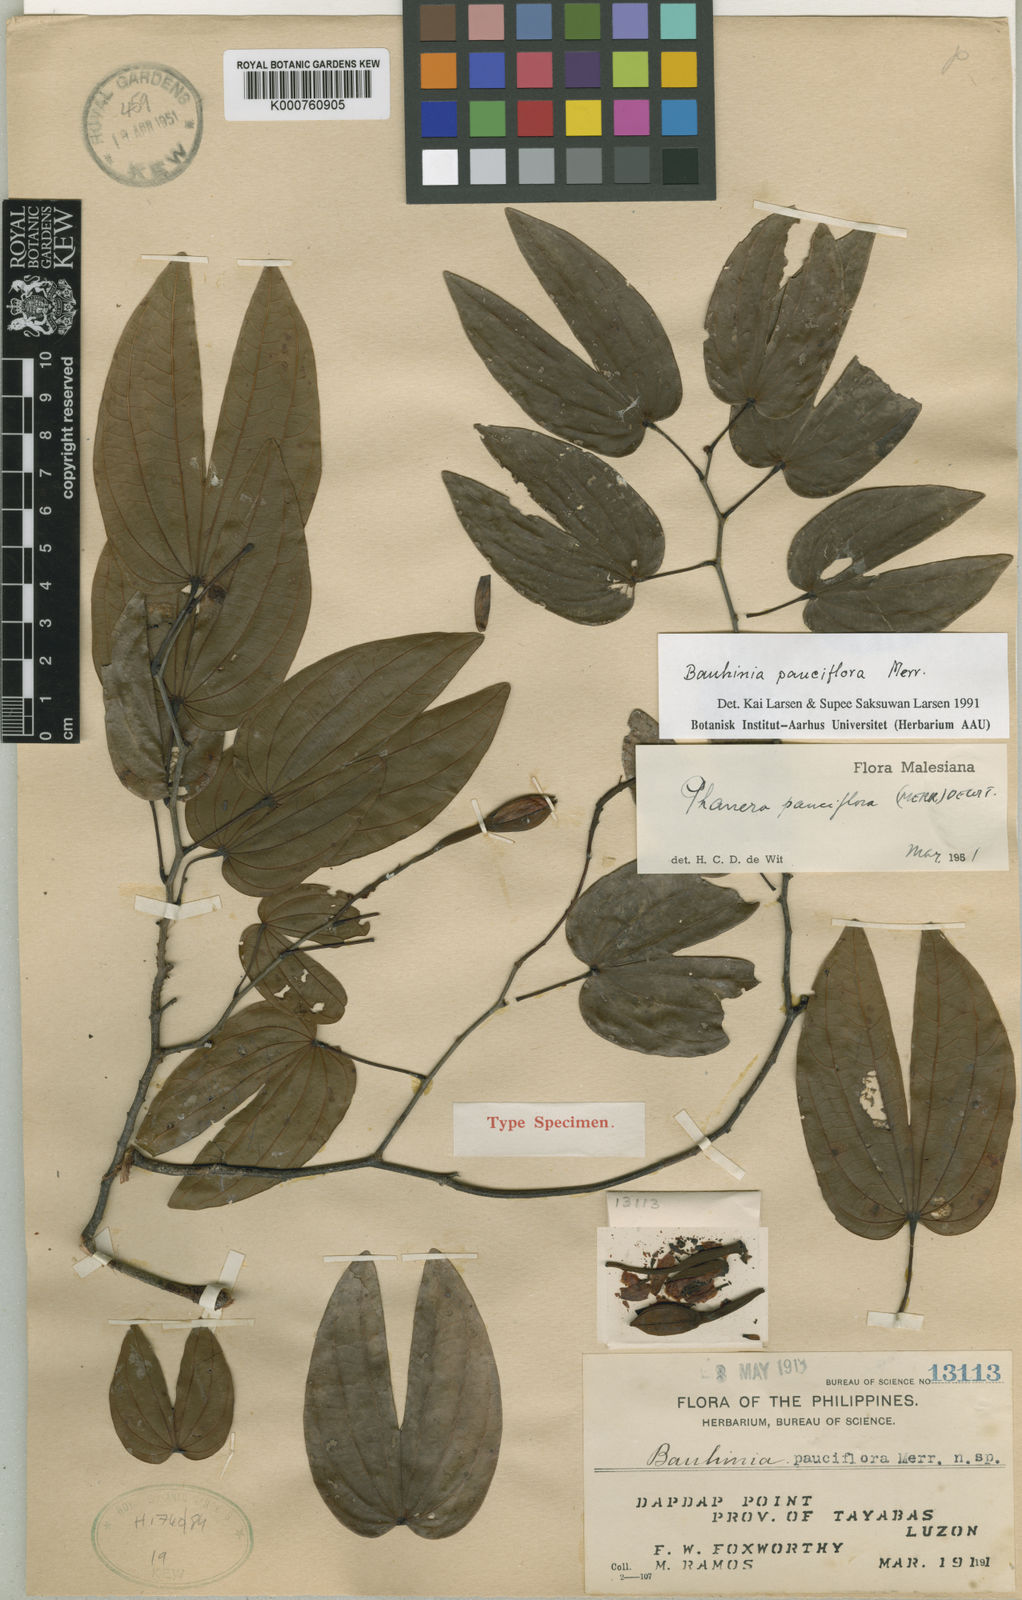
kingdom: Plantae
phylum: Tracheophyta
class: Magnoliopsida
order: Fabales
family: Fabaceae
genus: Phanera
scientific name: Phanera pauciflora
